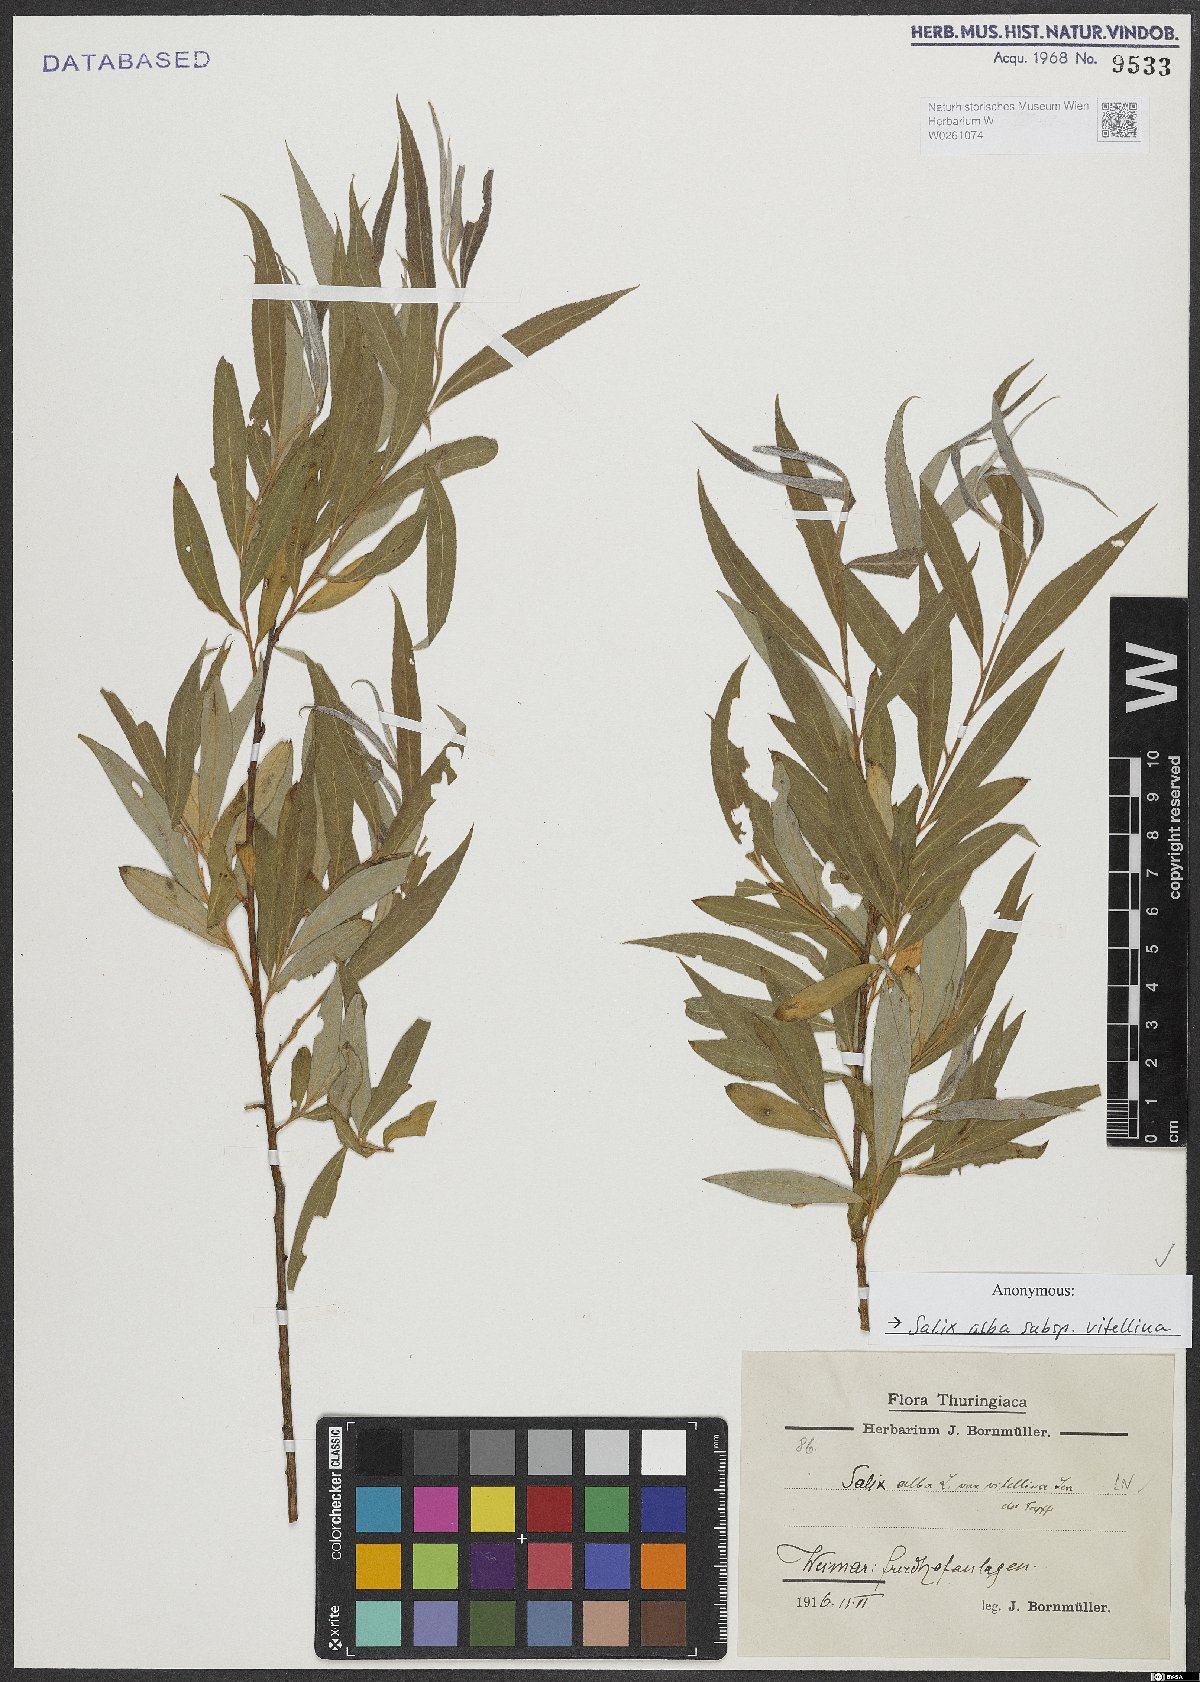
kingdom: Plantae
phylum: Tracheophyta
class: Magnoliopsida
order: Malpighiales
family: Salicaceae
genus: Salix
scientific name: Salix alba
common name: White willow
